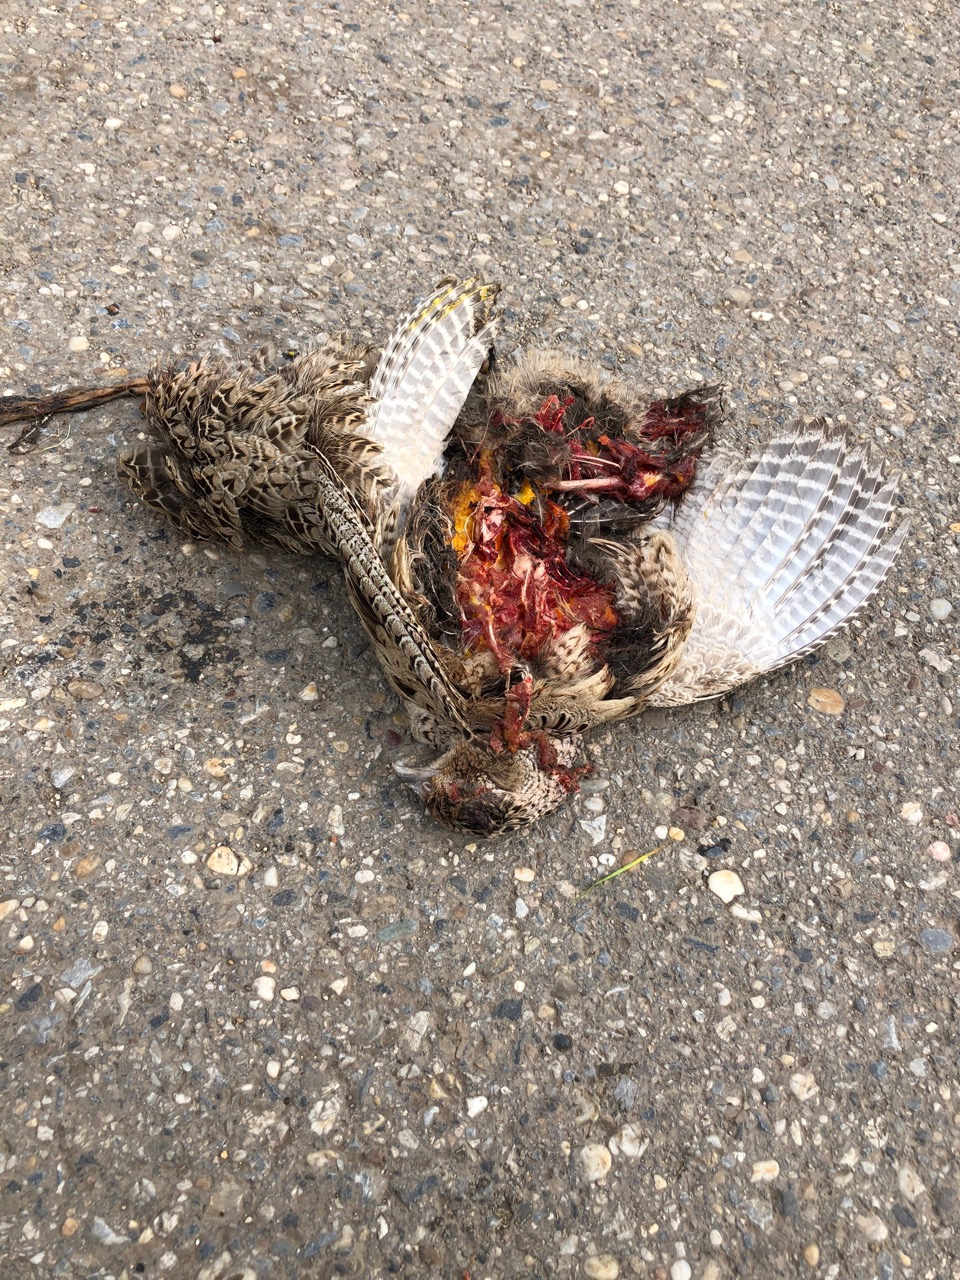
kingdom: Animalia
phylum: Chordata
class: Aves
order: Galliformes
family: Phasianidae
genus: Phasianus
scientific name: Phasianus colchicus
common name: Common pheasant
